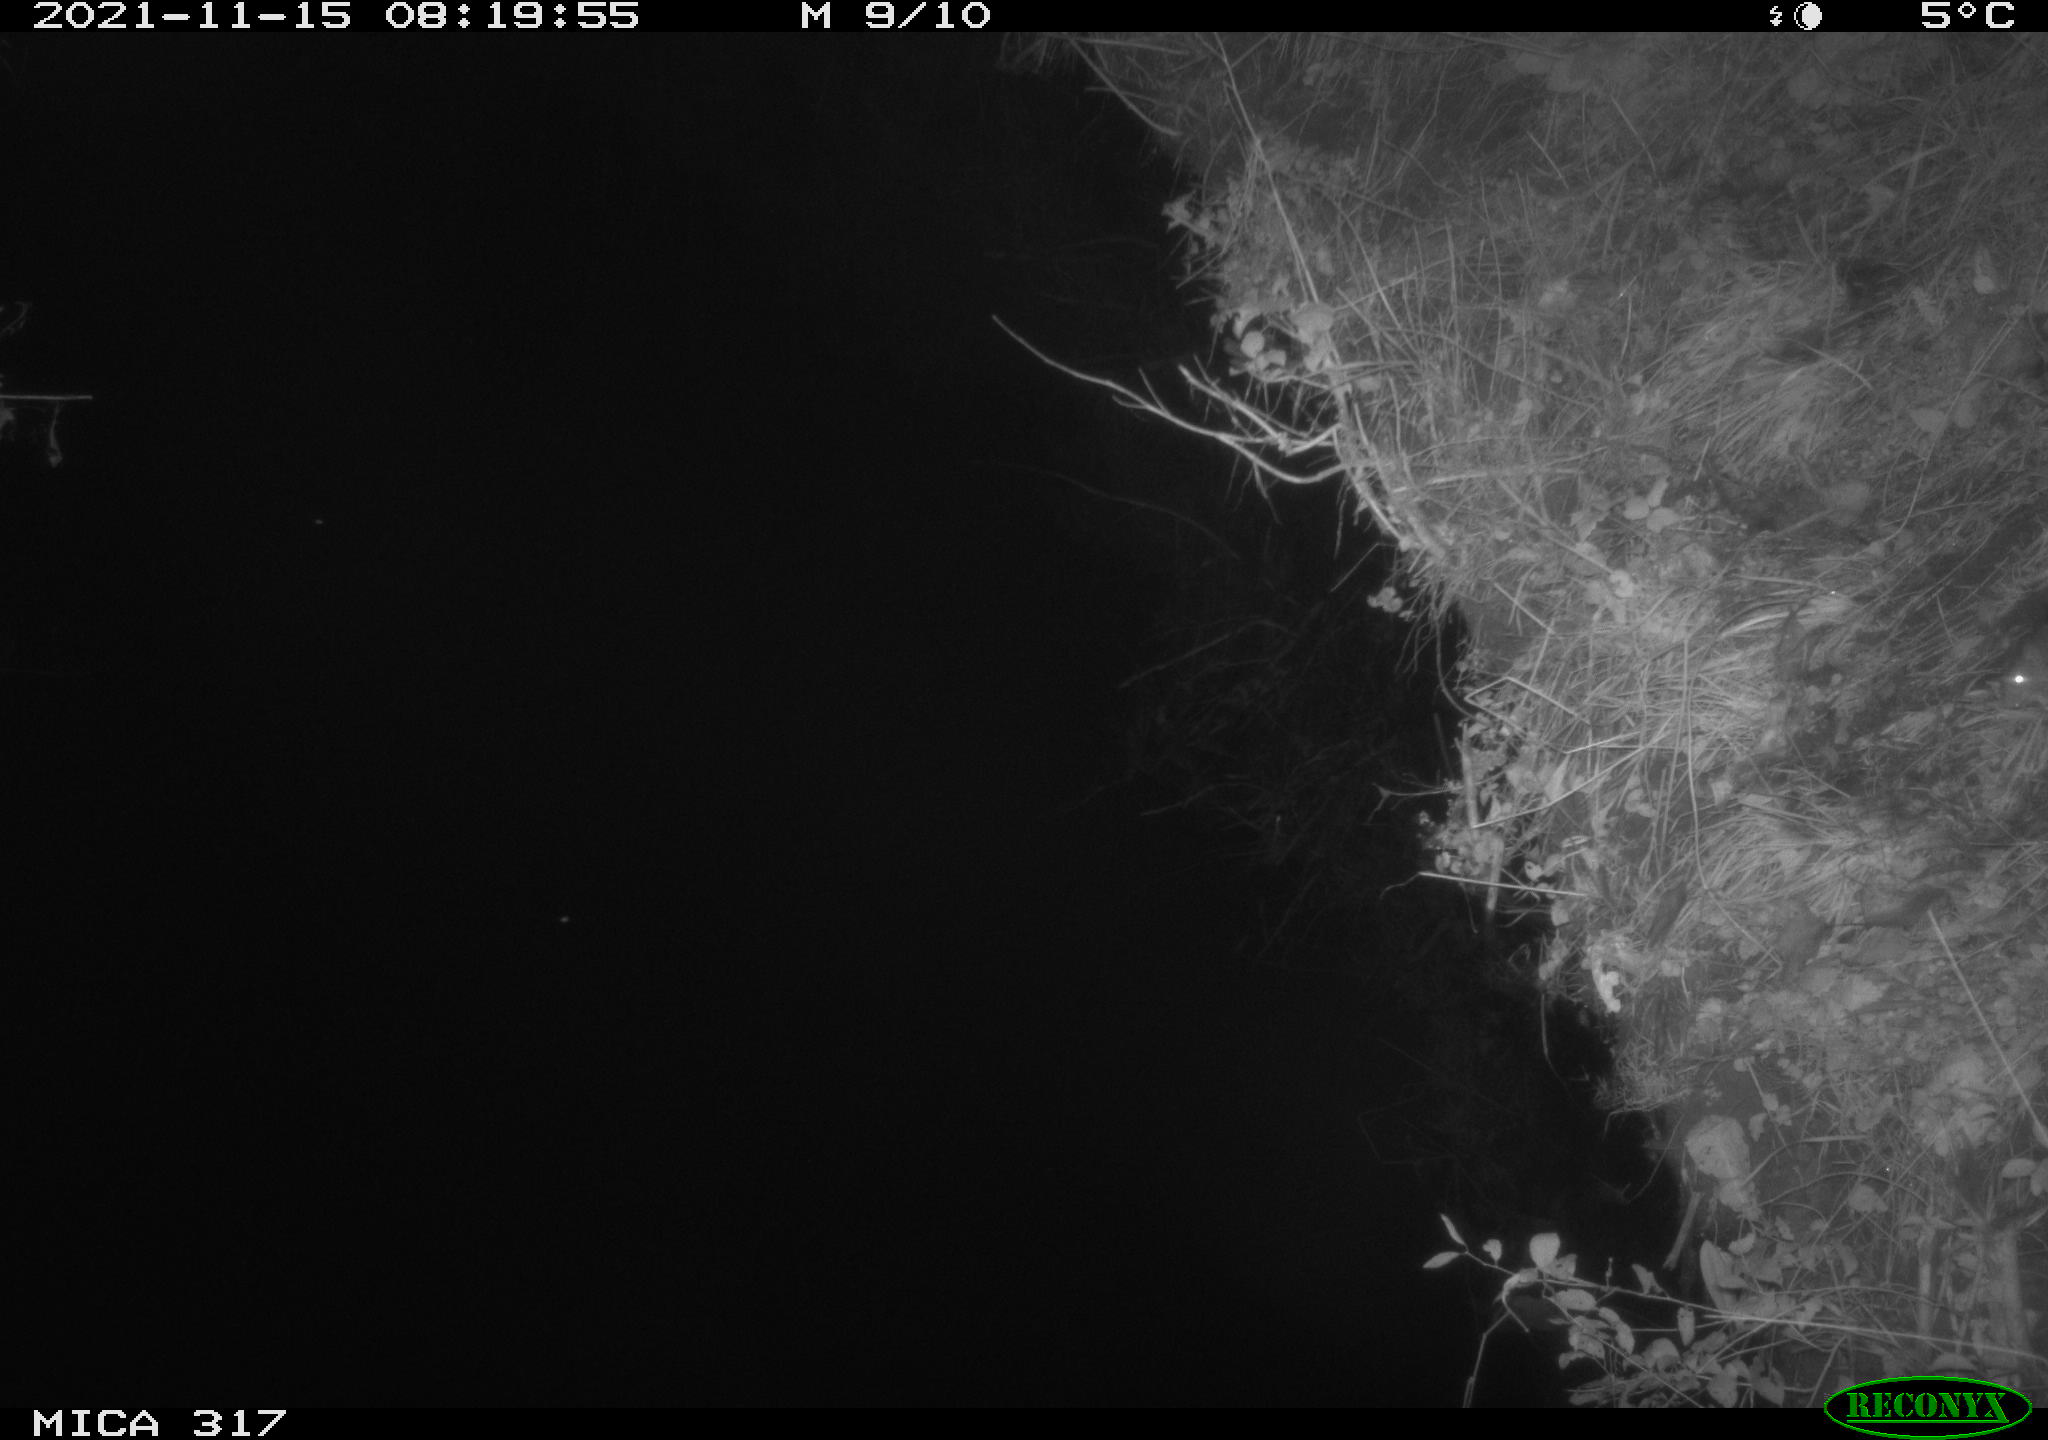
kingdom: Animalia
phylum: Chordata
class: Mammalia
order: Rodentia
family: Muridae
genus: Rattus
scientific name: Rattus norvegicus
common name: Brown rat
